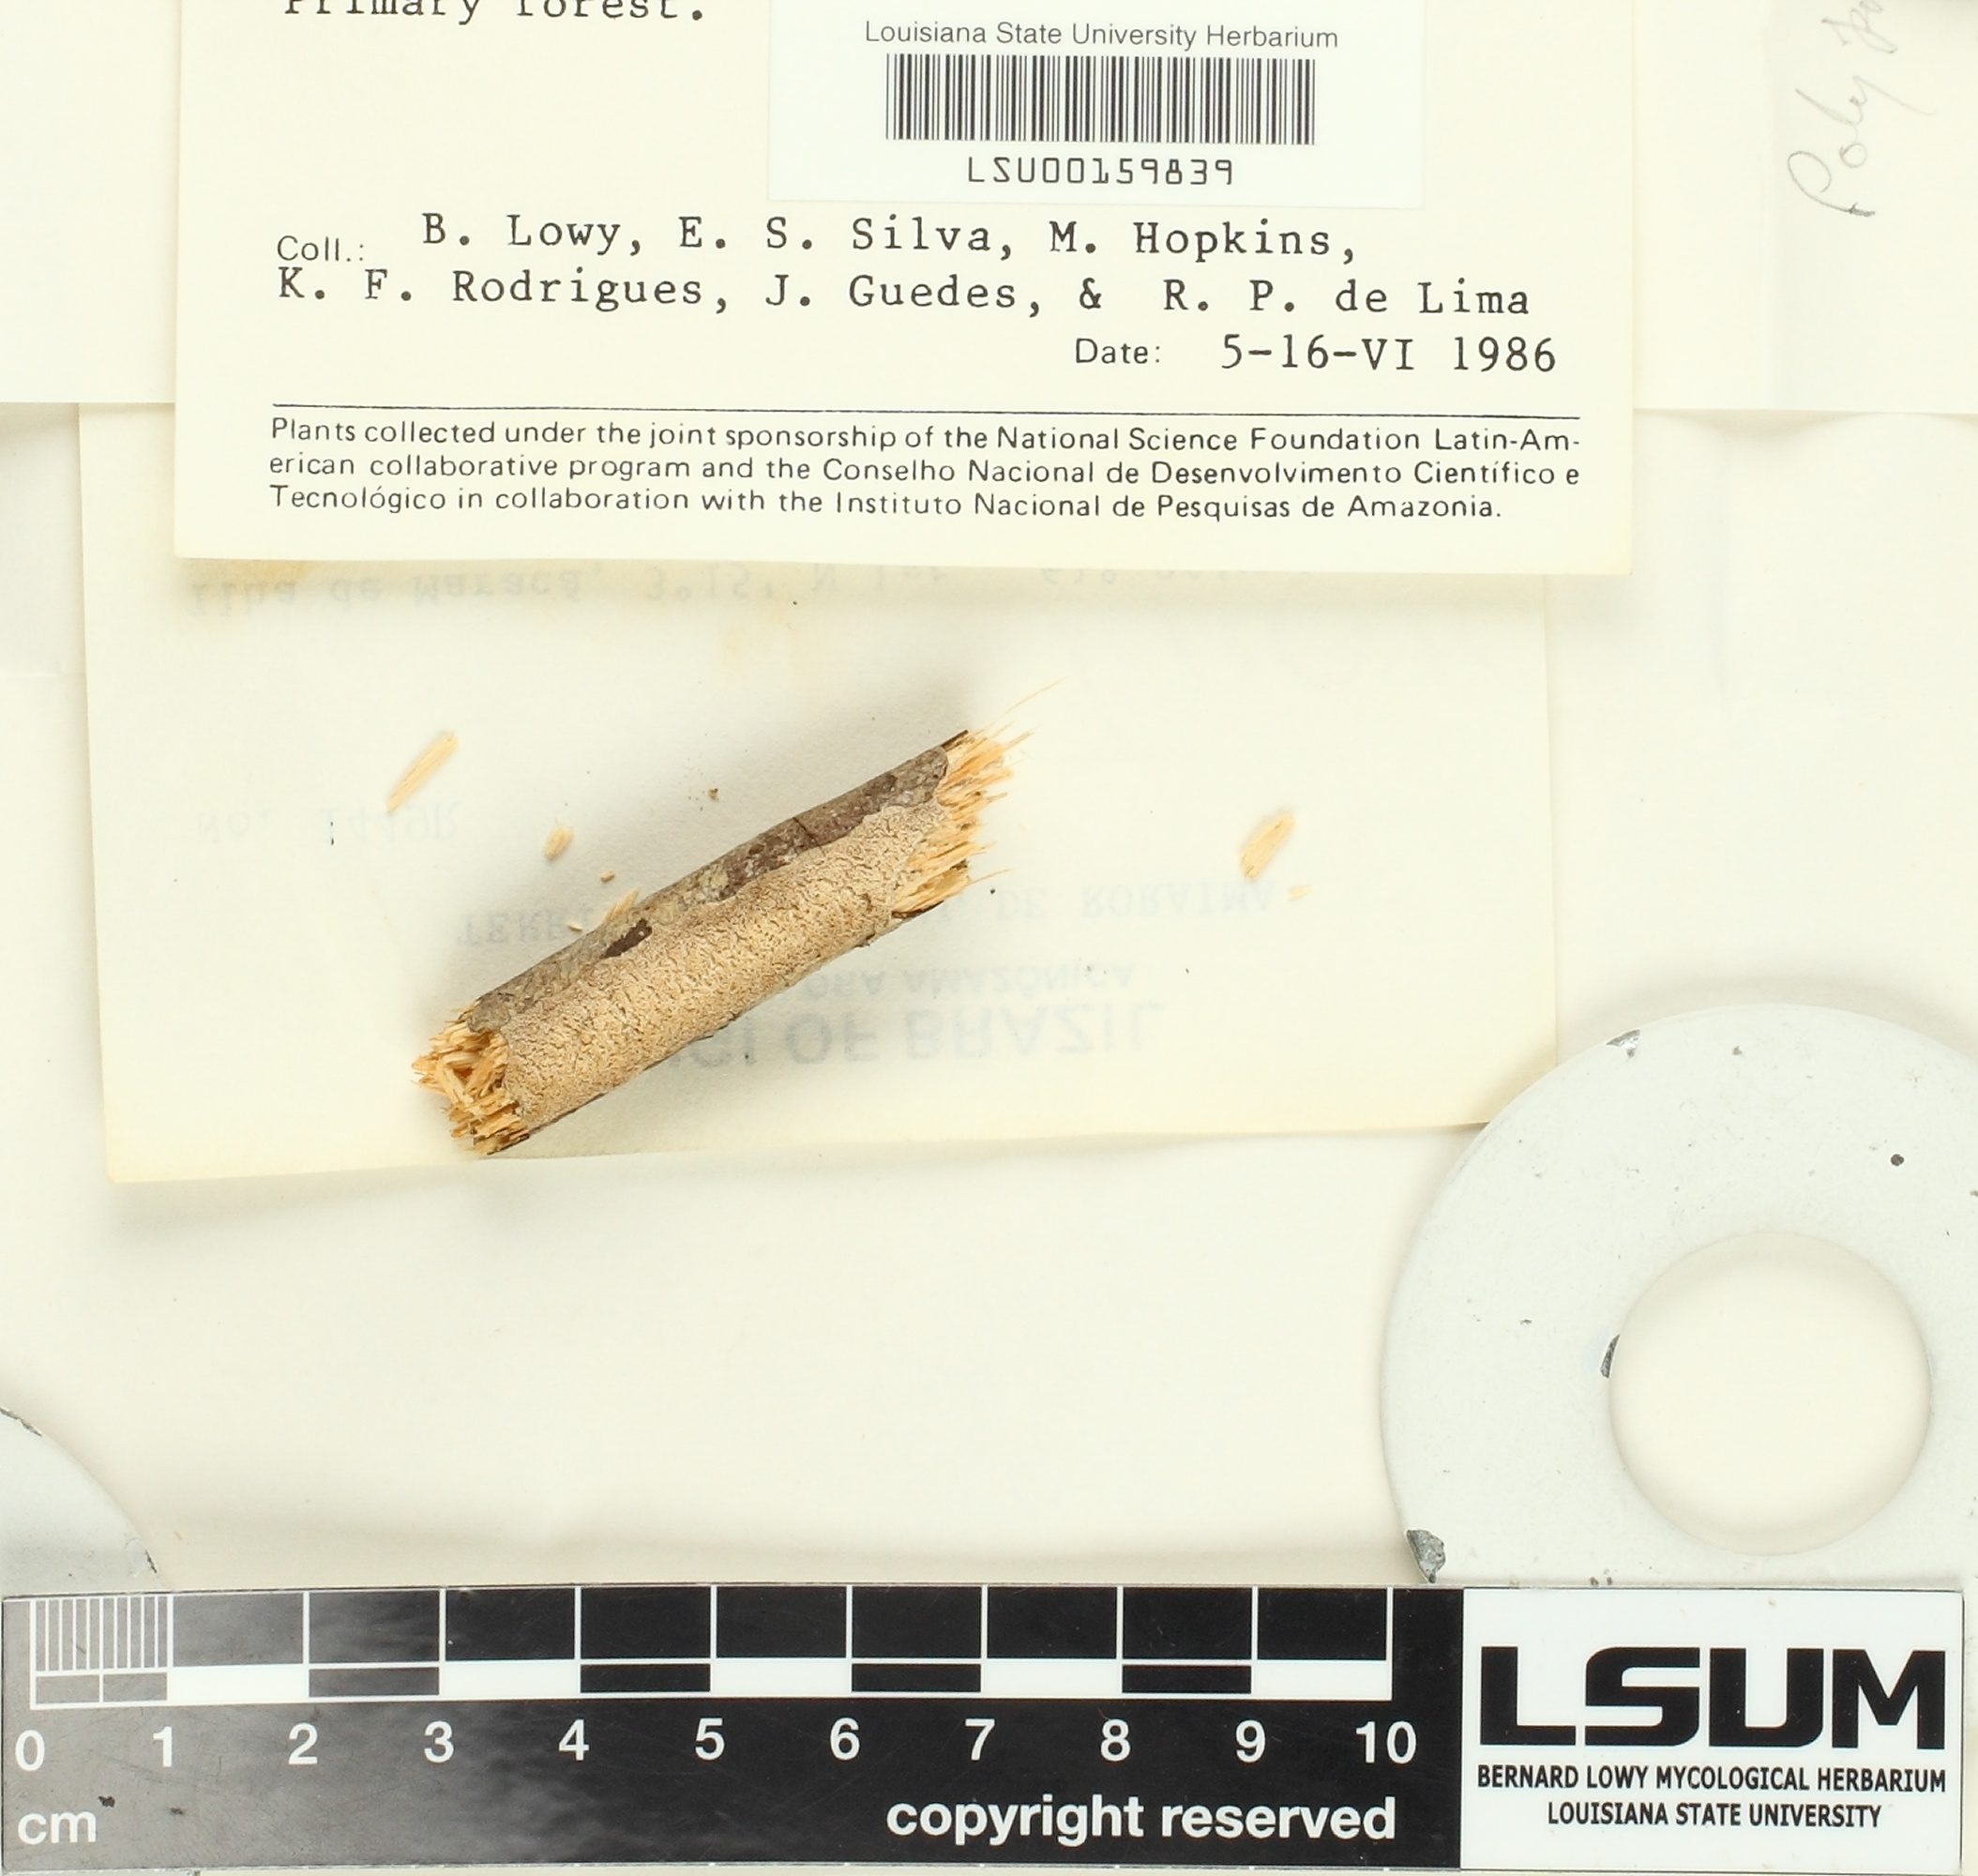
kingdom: Fungi
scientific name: Fungi
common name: Fungi
